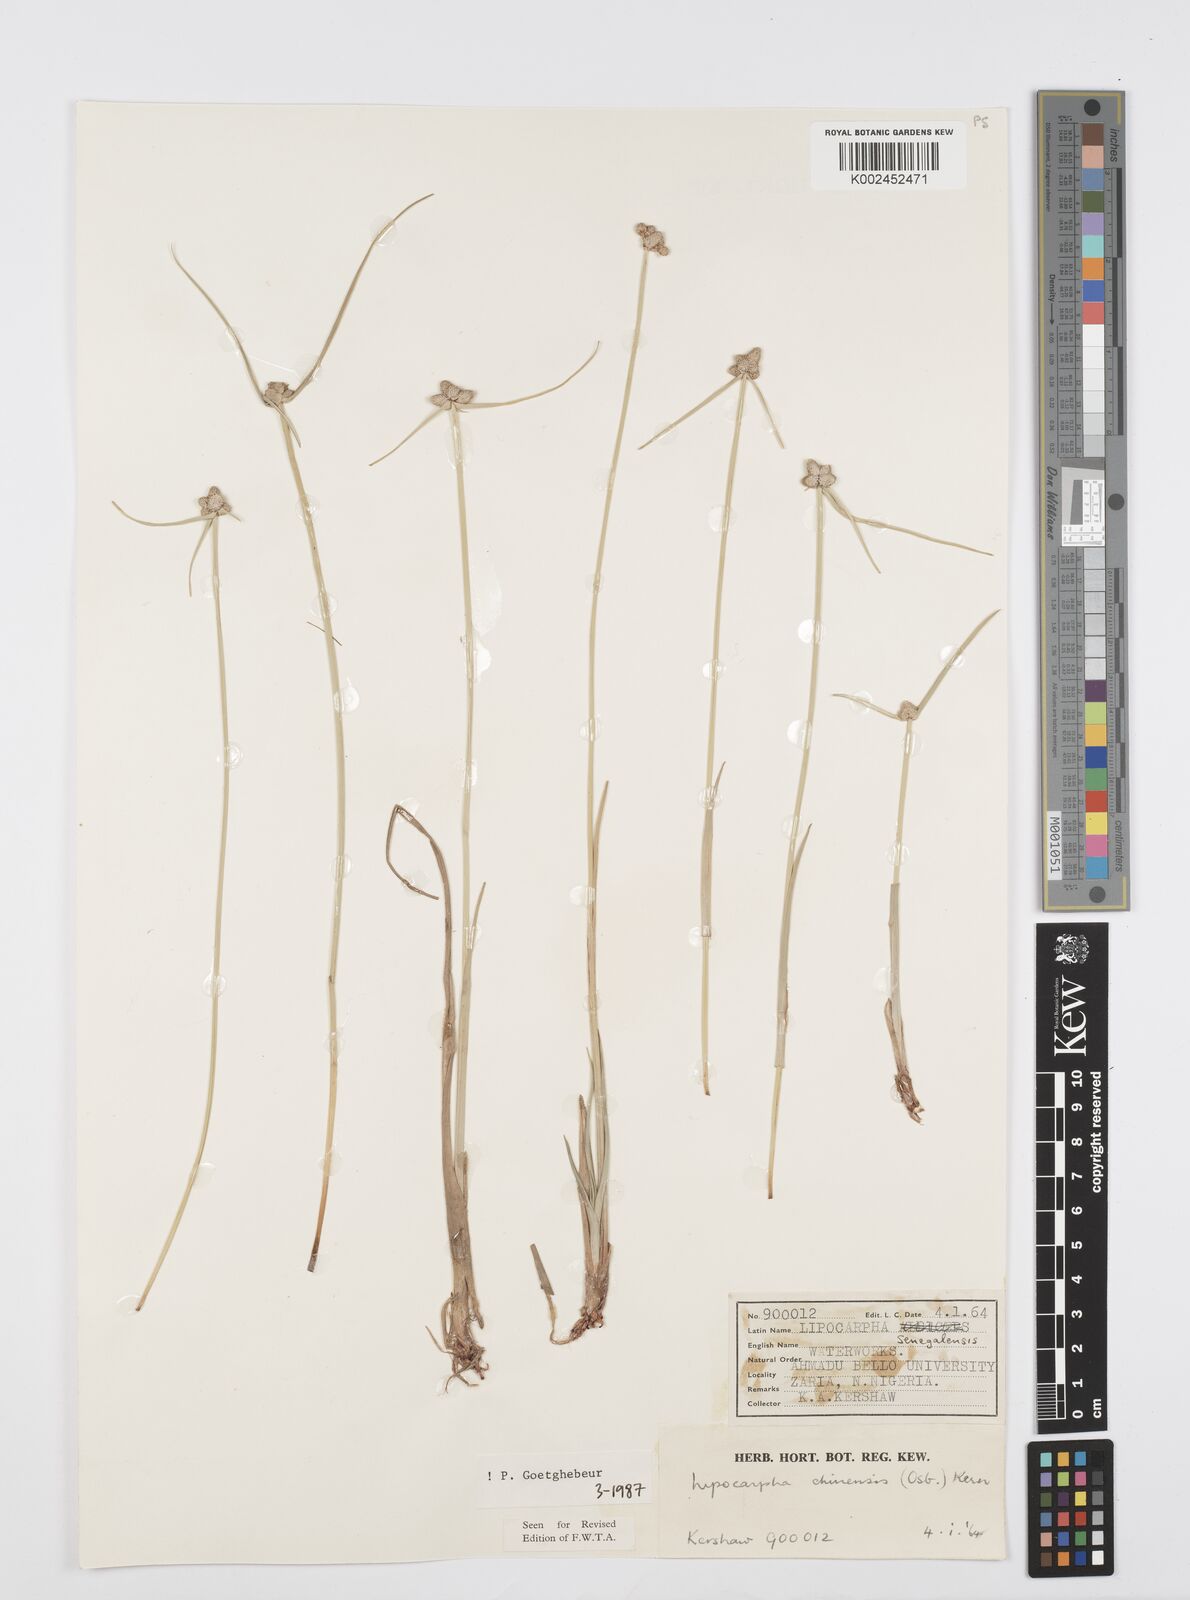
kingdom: Plantae
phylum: Tracheophyta
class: Liliopsida
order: Poales
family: Cyperaceae
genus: Cyperus
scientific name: Cyperus albescens
